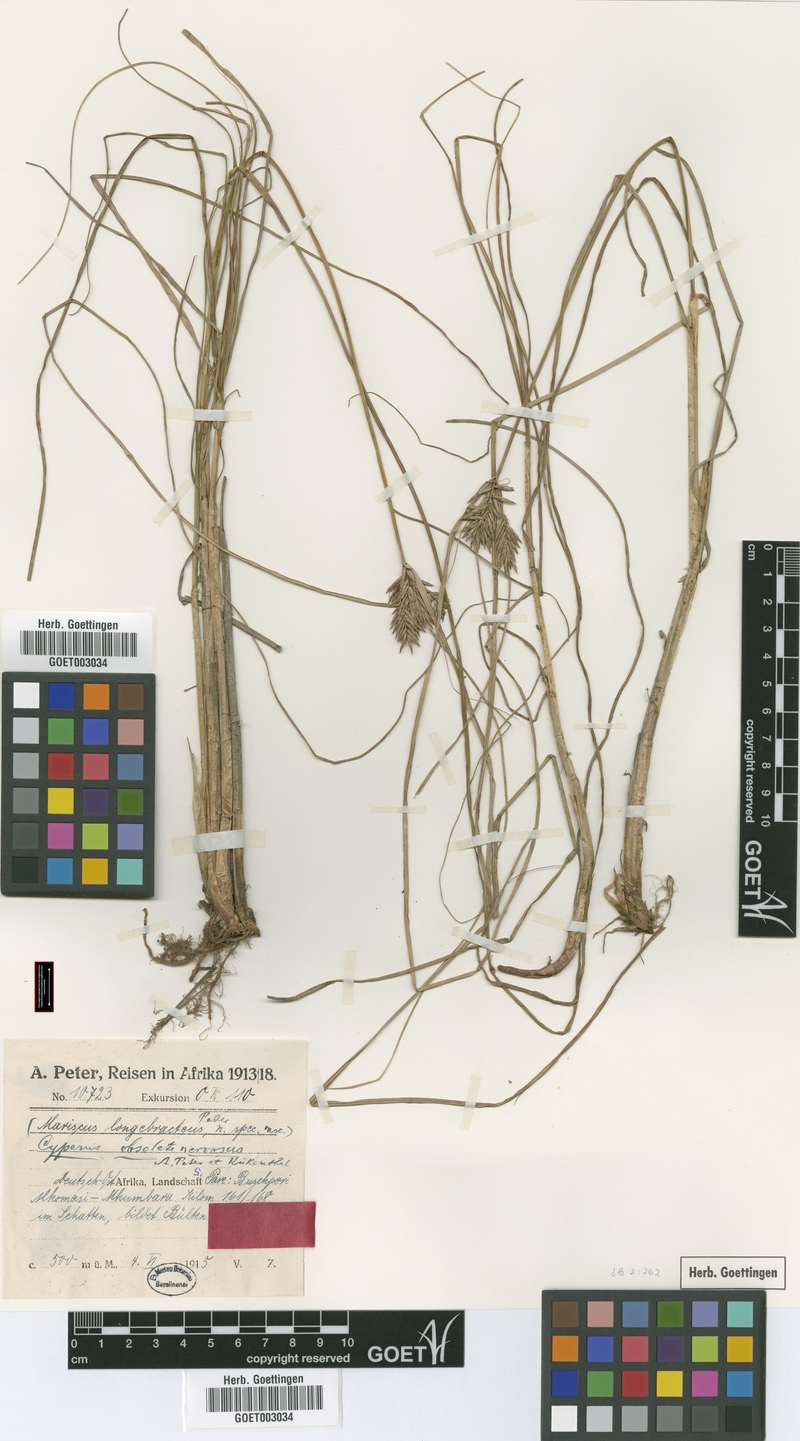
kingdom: Plantae
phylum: Tracheophyta
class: Liliopsida
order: Poales
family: Cyperaceae
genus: Cyperus
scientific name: Cyperus vestitus
